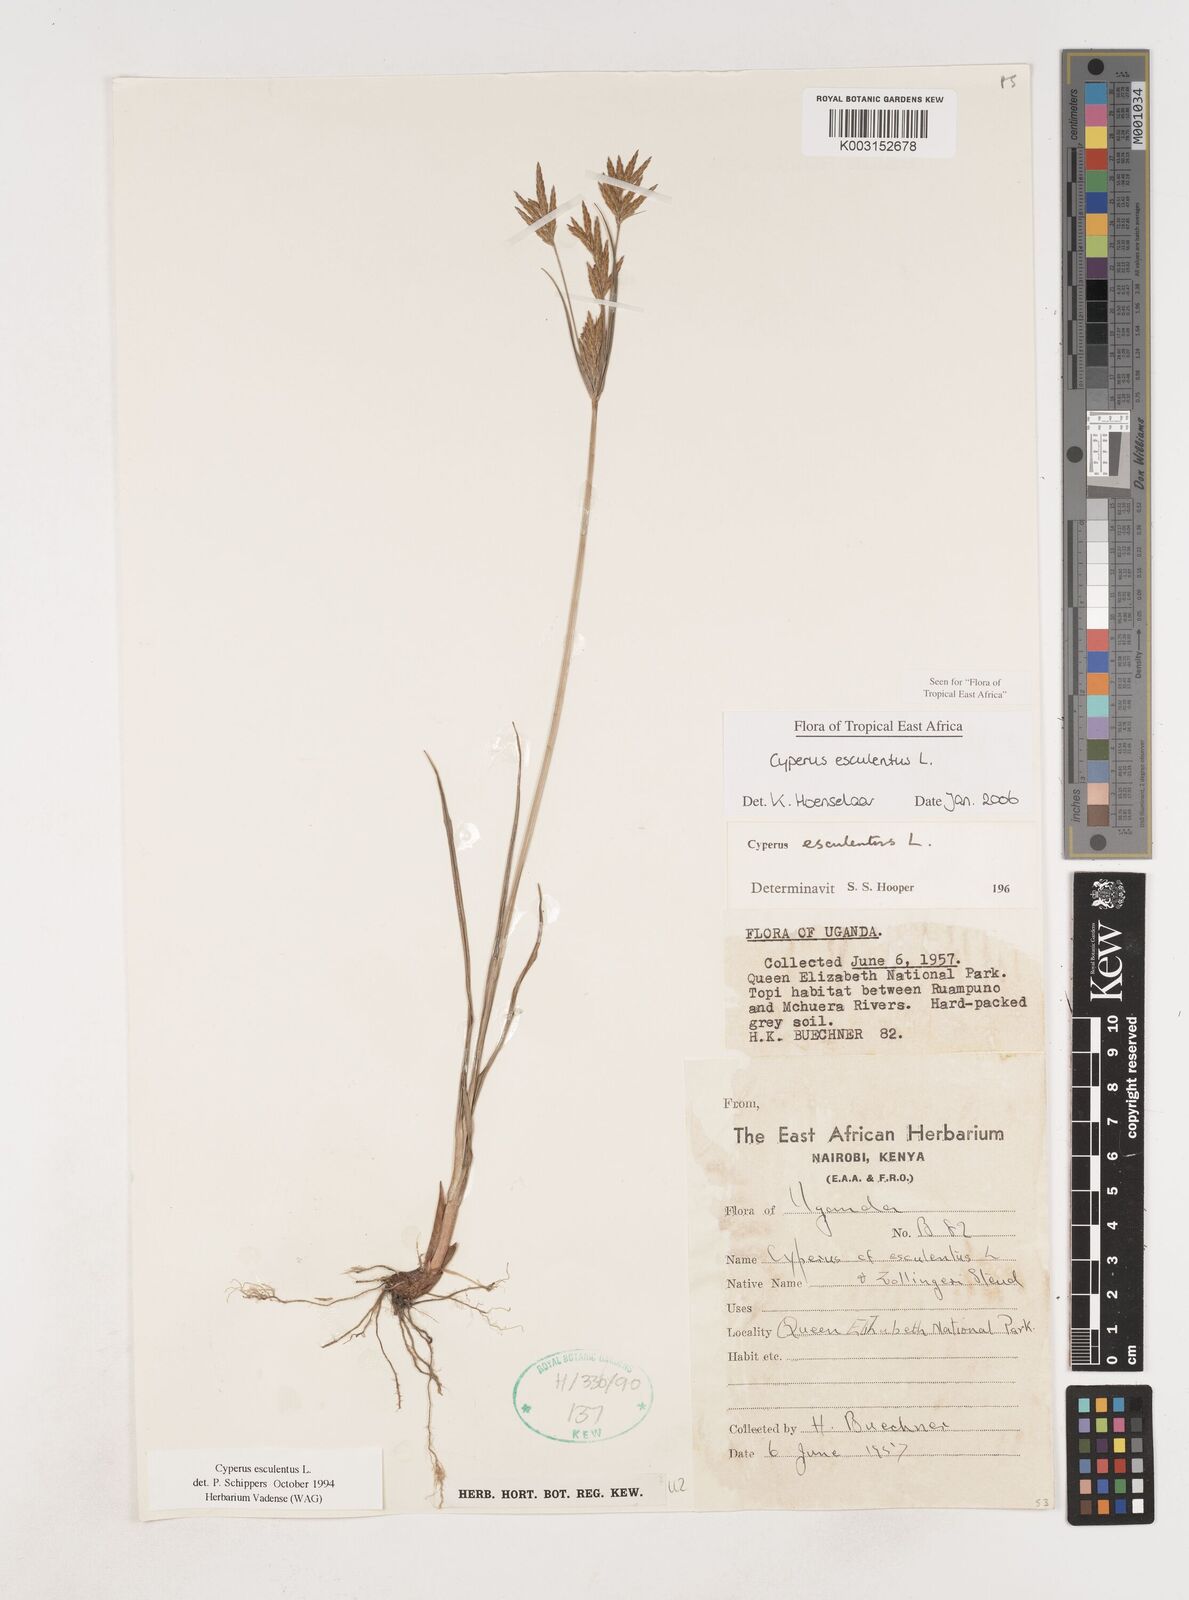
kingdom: Plantae
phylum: Tracheophyta
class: Liliopsida
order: Poales
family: Cyperaceae
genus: Cyperus
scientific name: Cyperus esculentus
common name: Yellow nutsedge
